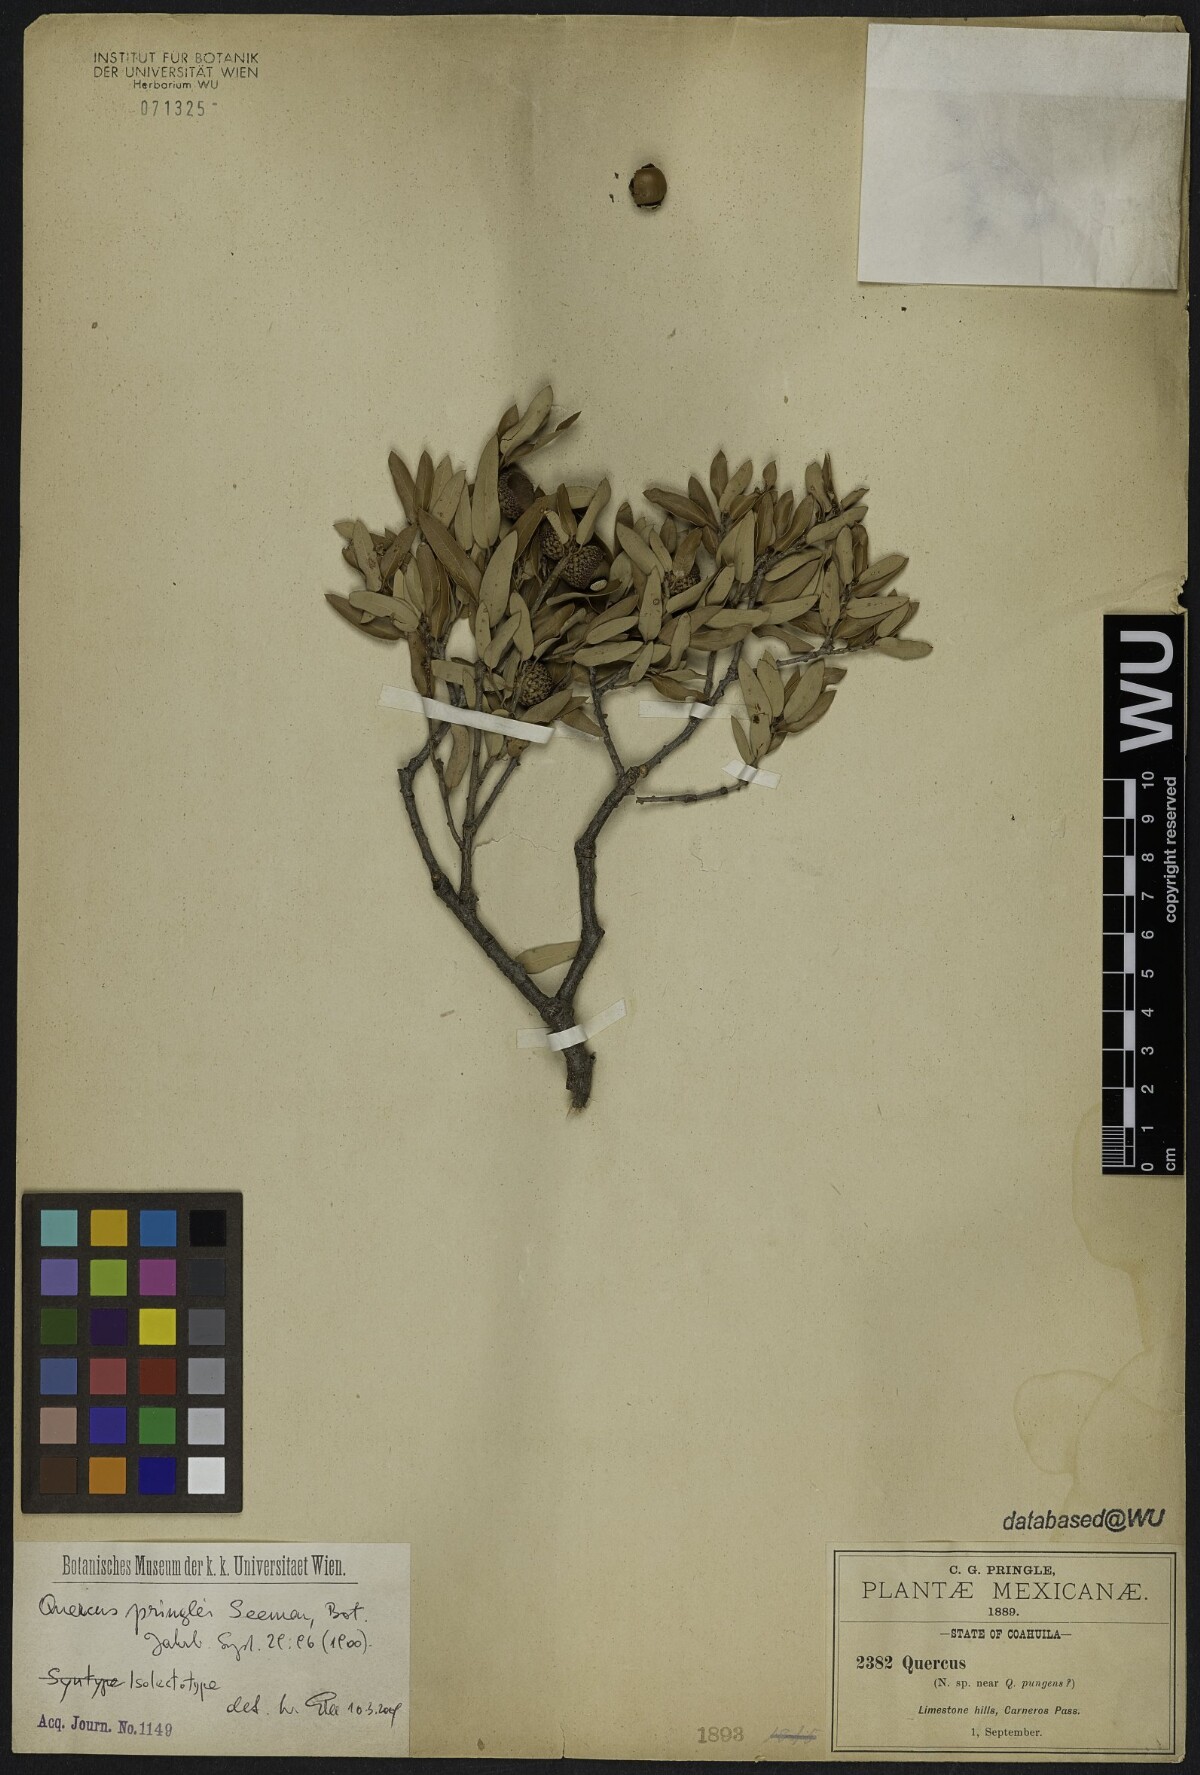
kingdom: Plantae
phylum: Tracheophyta
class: Magnoliopsida
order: Fagales
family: Fagaceae
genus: Quercus
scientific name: Quercus pringlei
